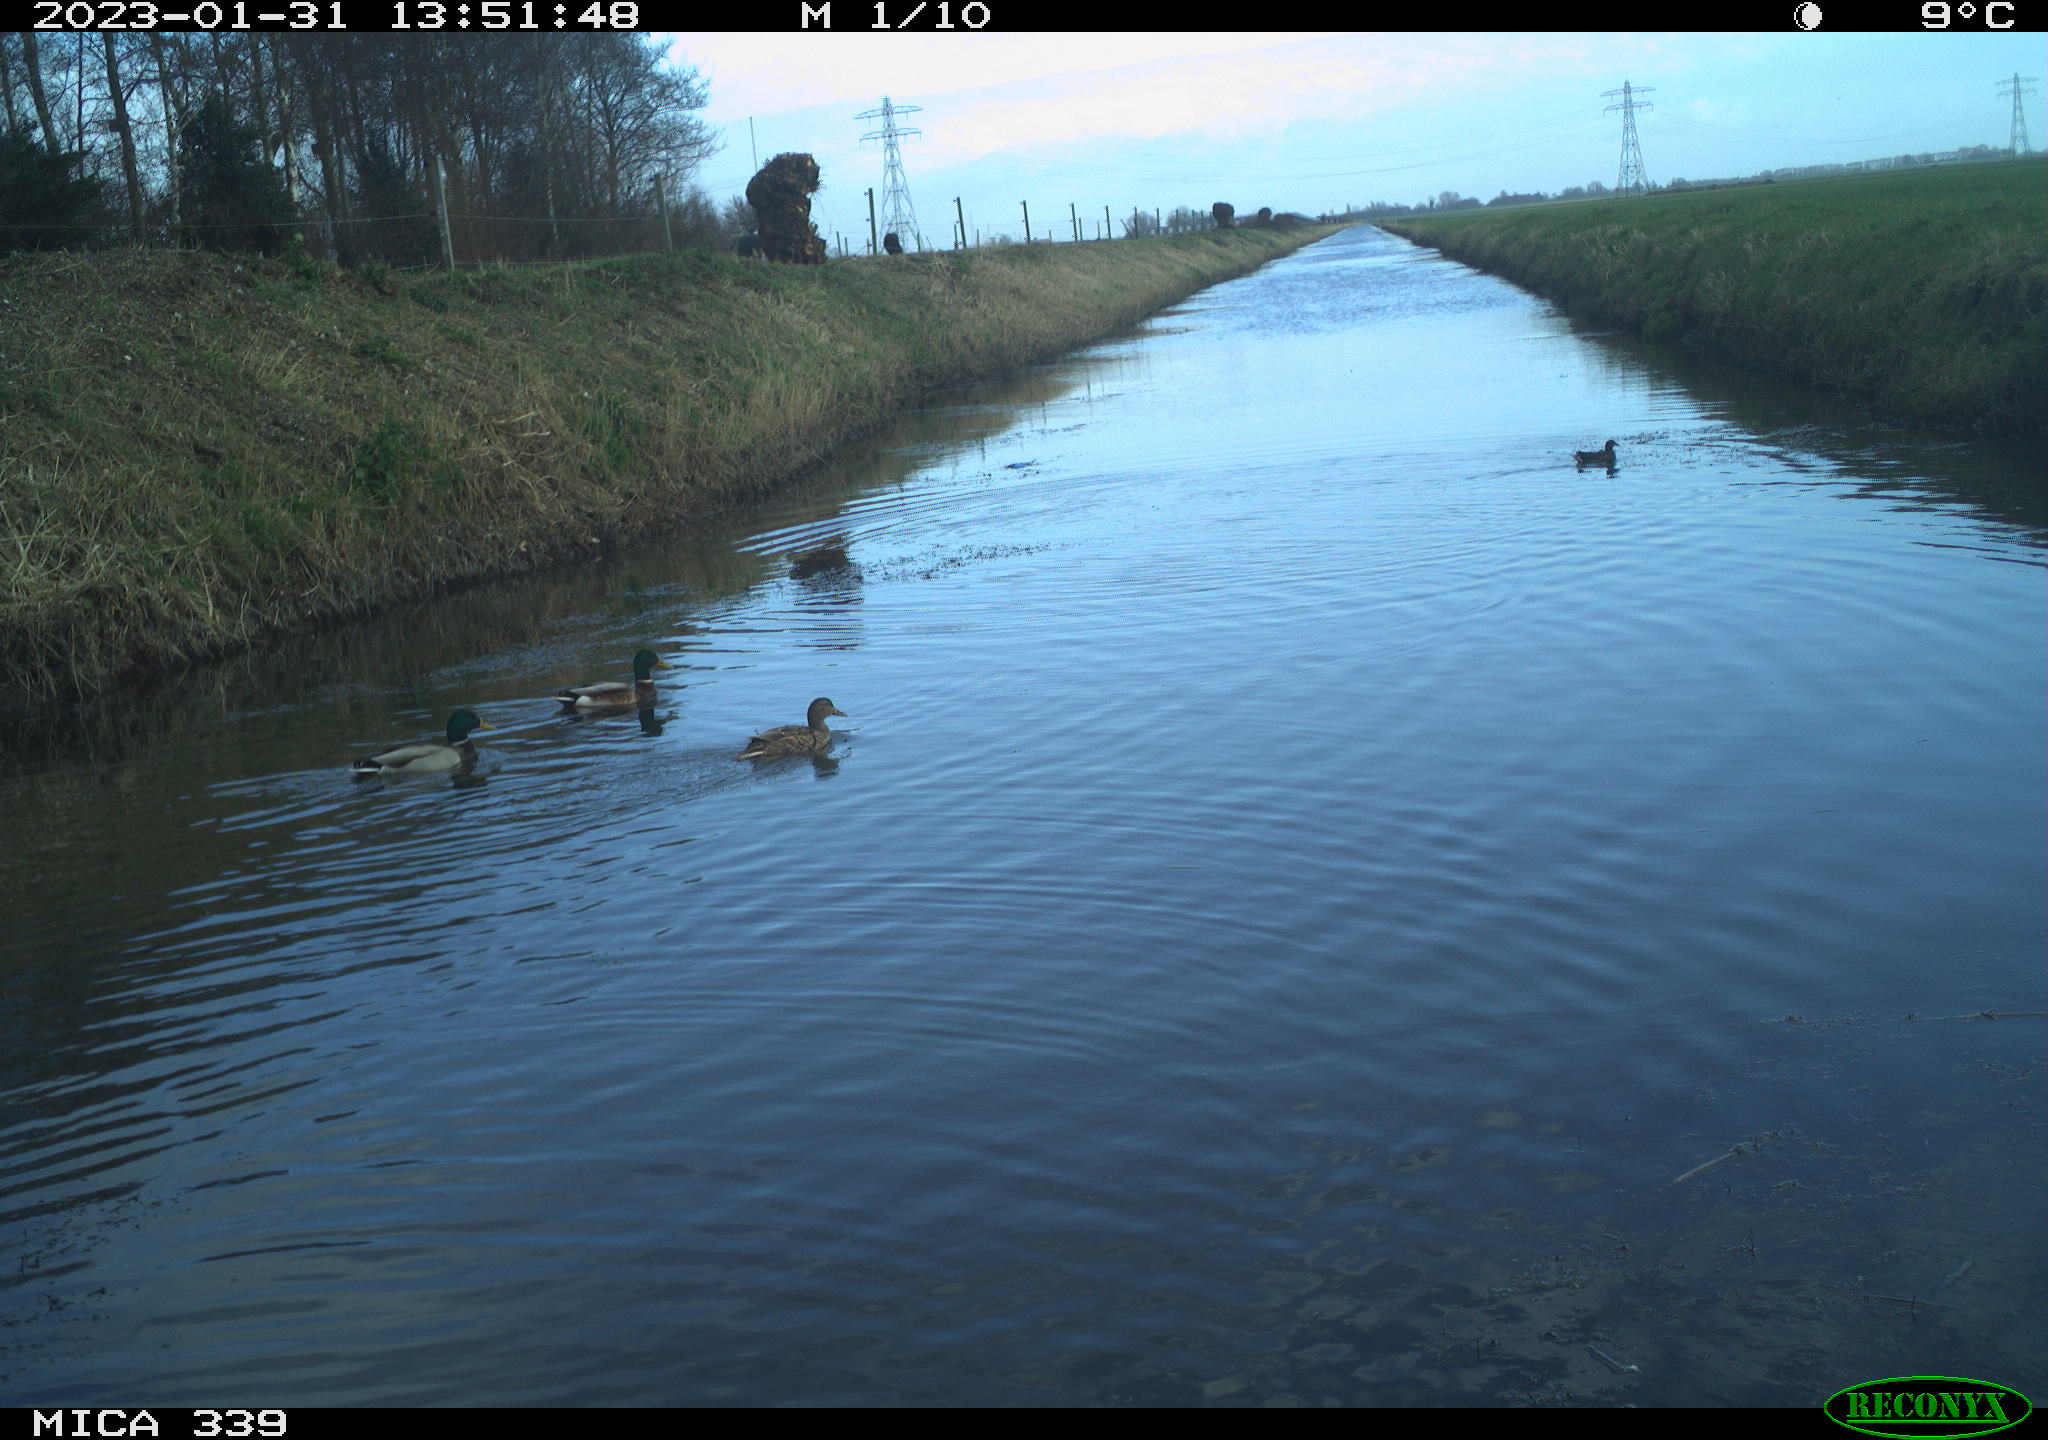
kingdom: Animalia
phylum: Chordata
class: Aves
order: Gruiformes
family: Rallidae
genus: Fulica
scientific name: Fulica atra
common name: Eurasian coot
